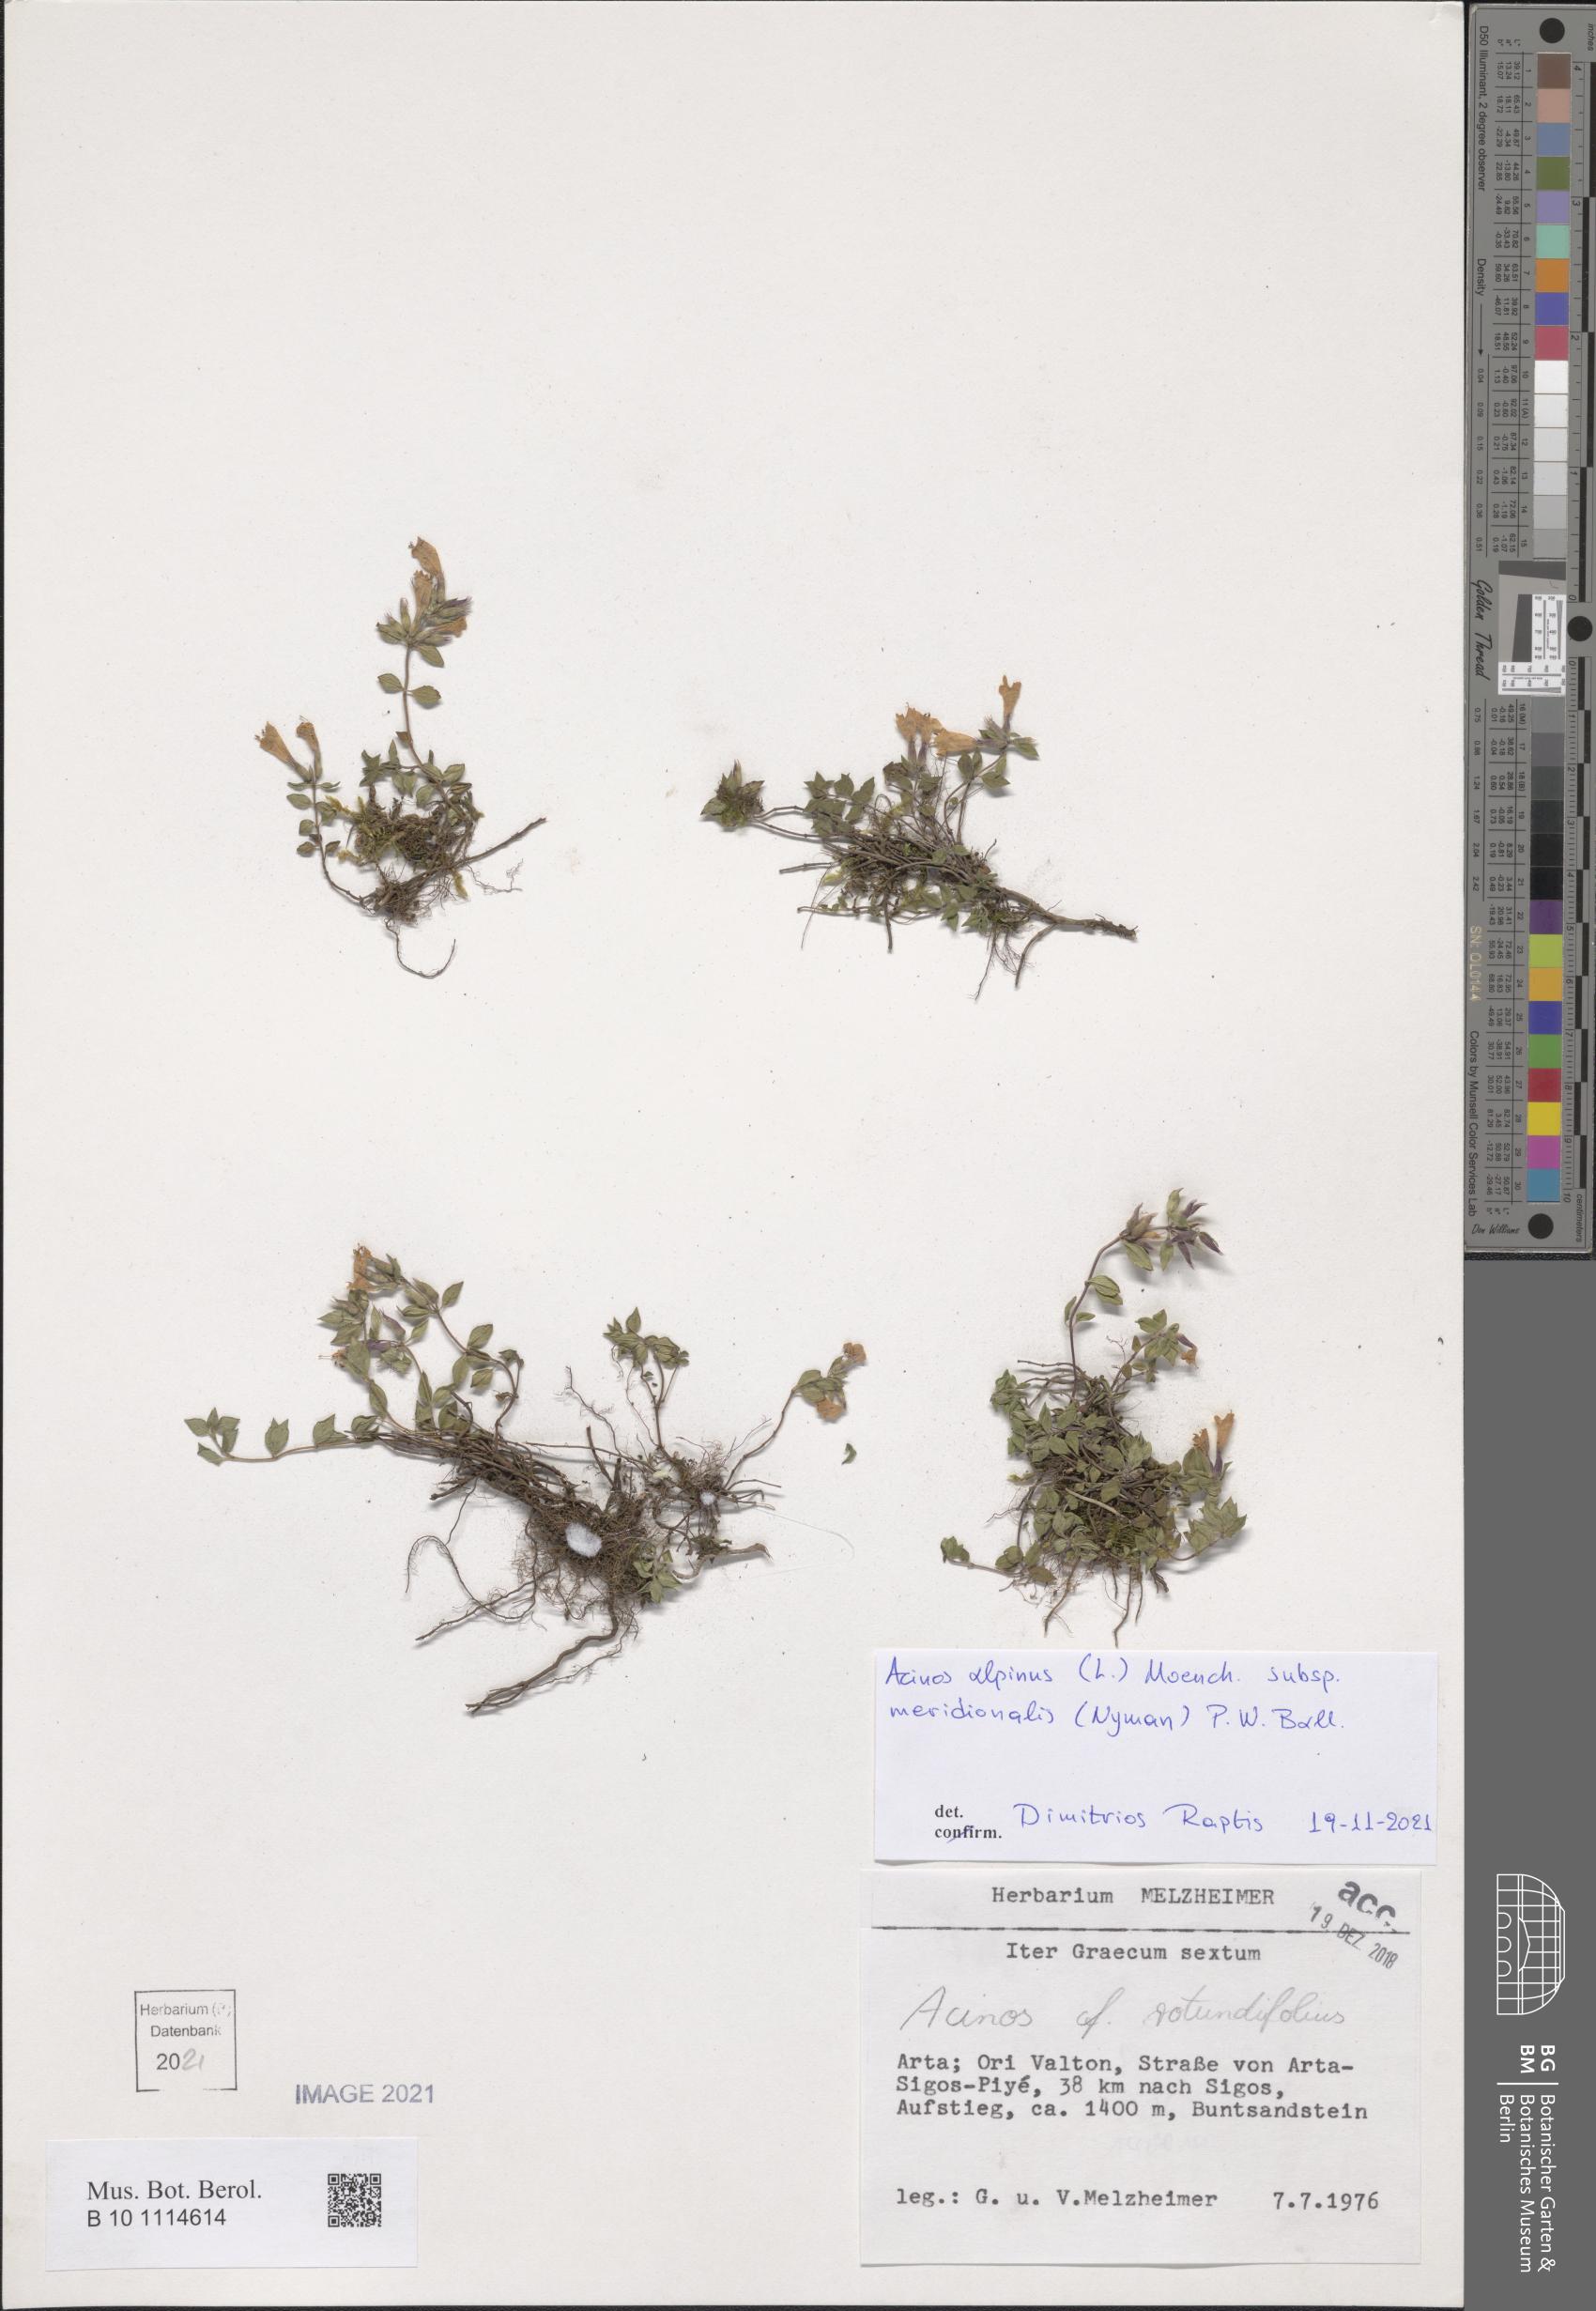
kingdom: Plantae
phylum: Tracheophyta
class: Magnoliopsida
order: Lamiales
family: Lamiaceae
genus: Clinopodium
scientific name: Clinopodium alpinum
